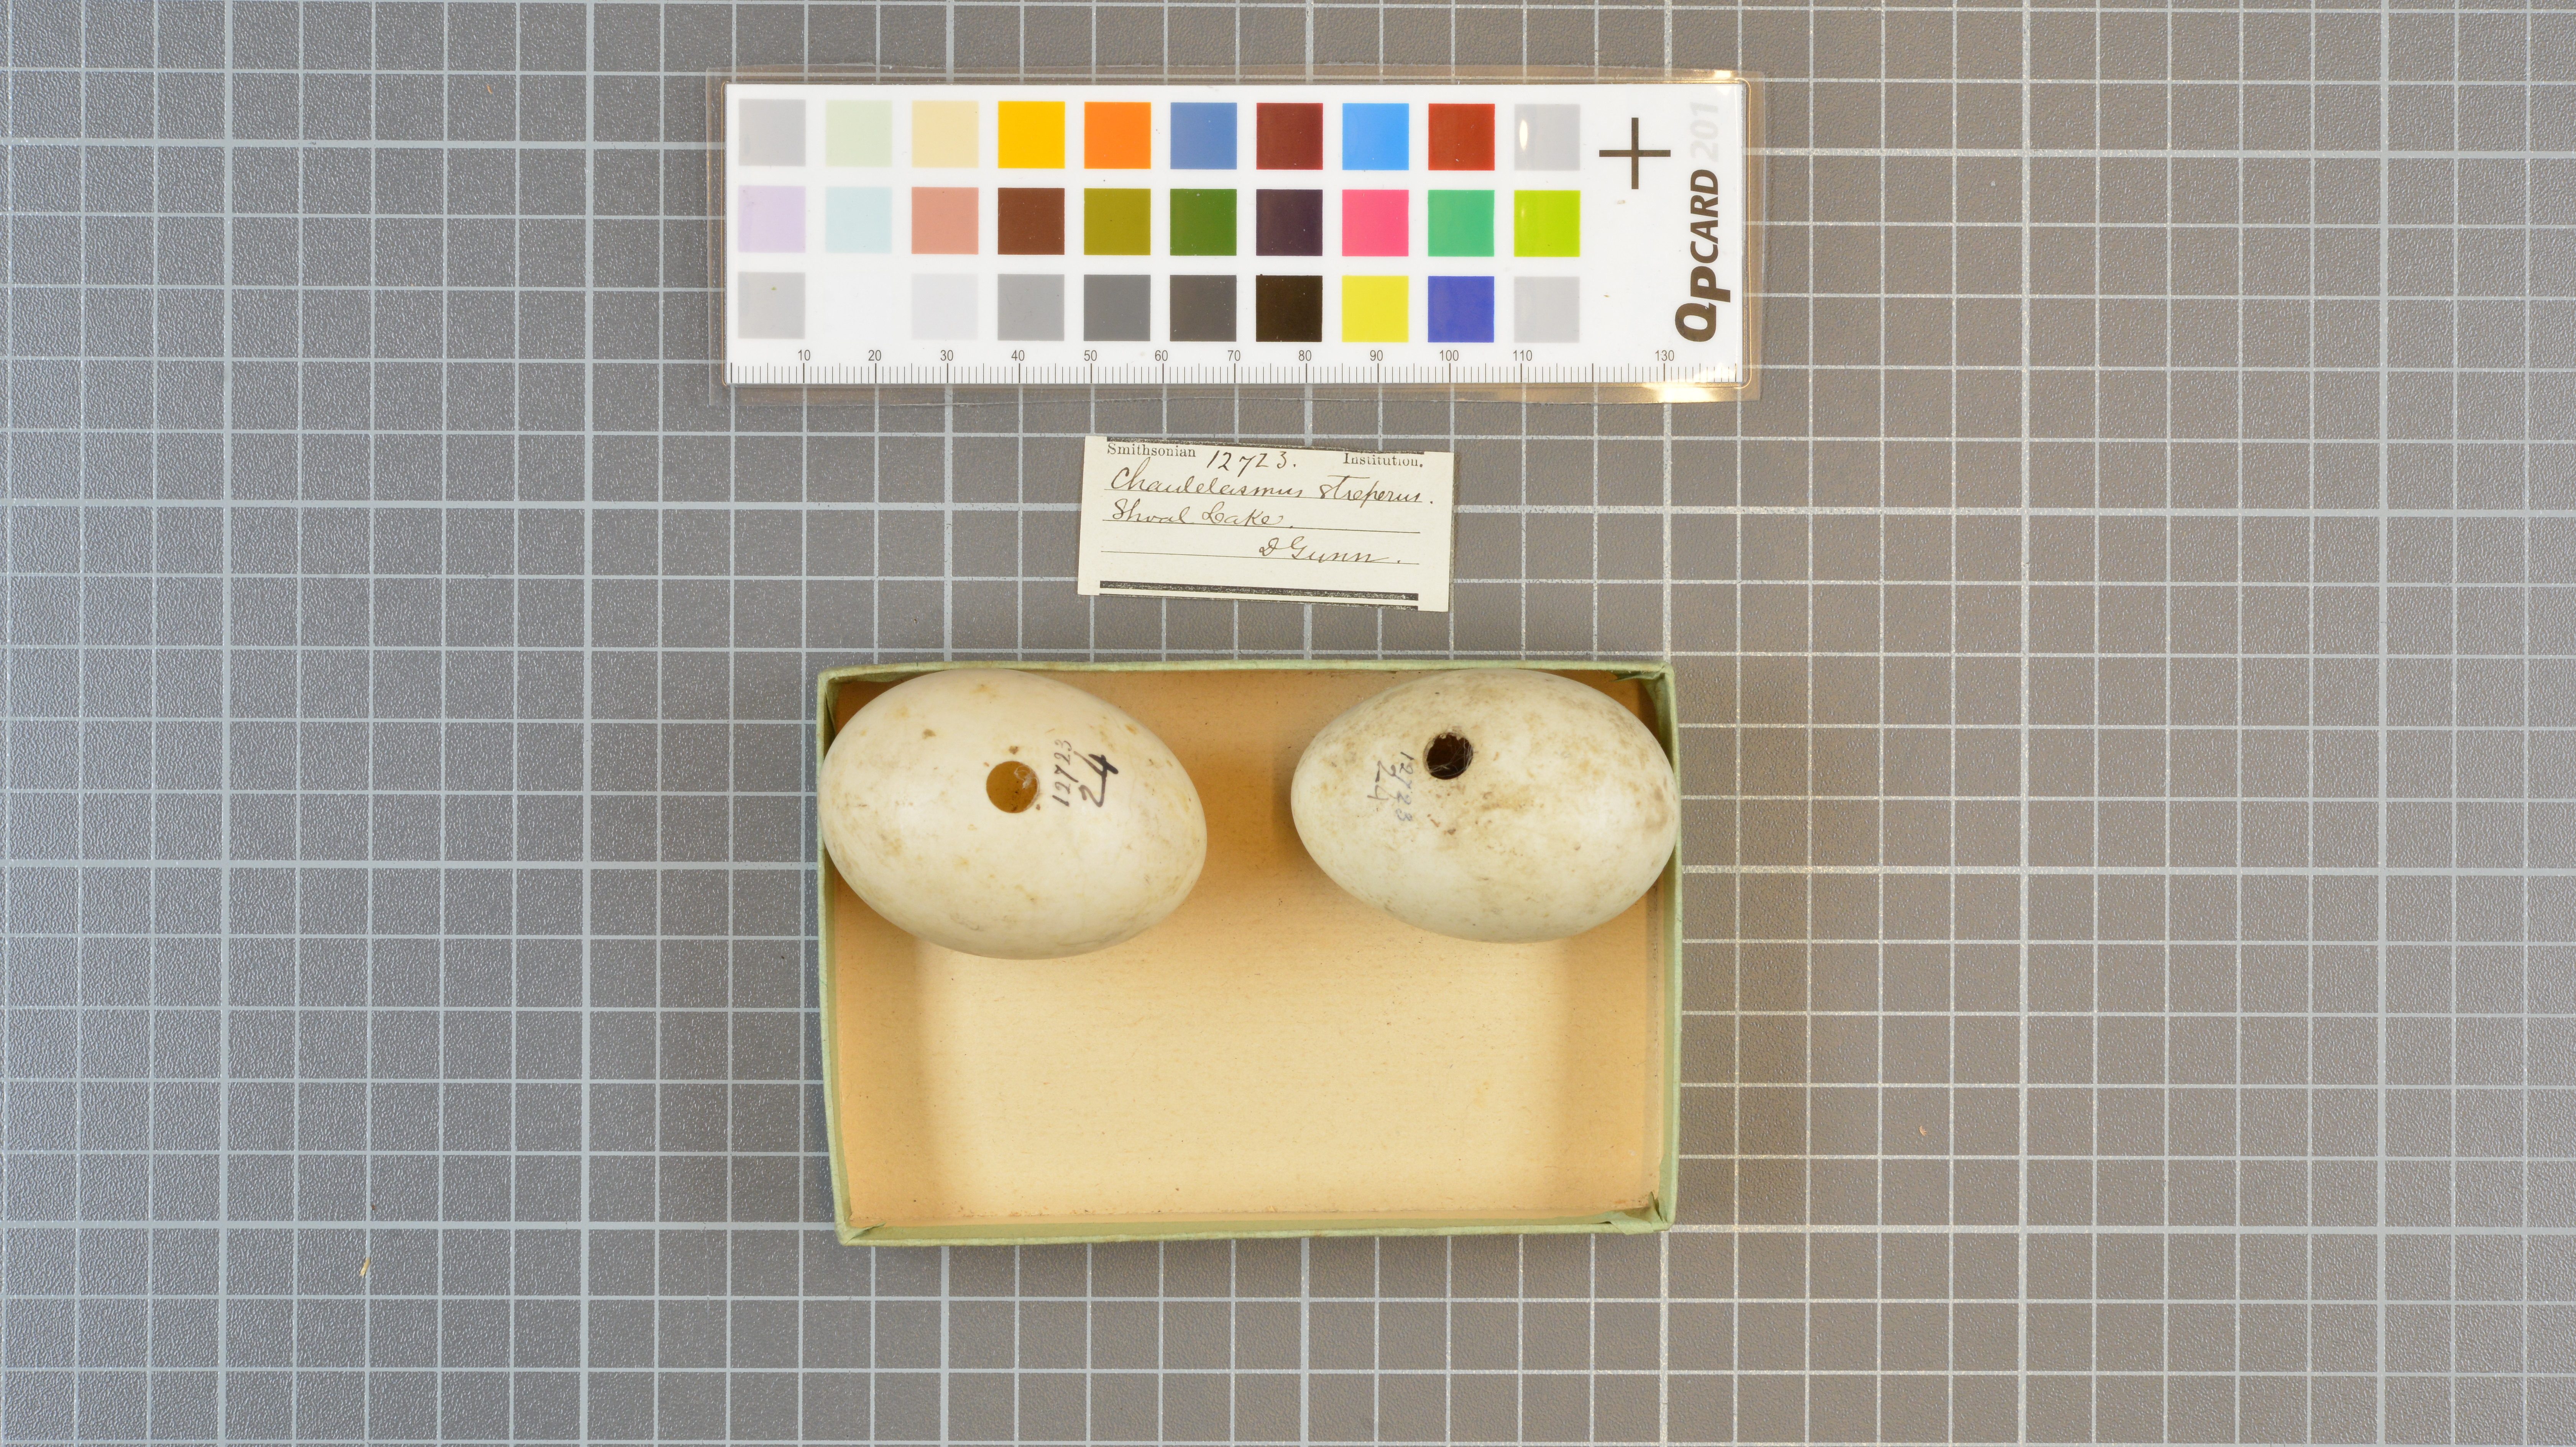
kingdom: Animalia
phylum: Chordata
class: Aves
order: Anseriformes
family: Anatidae
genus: Mareca
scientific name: Mareca strepera
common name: Gadwall
